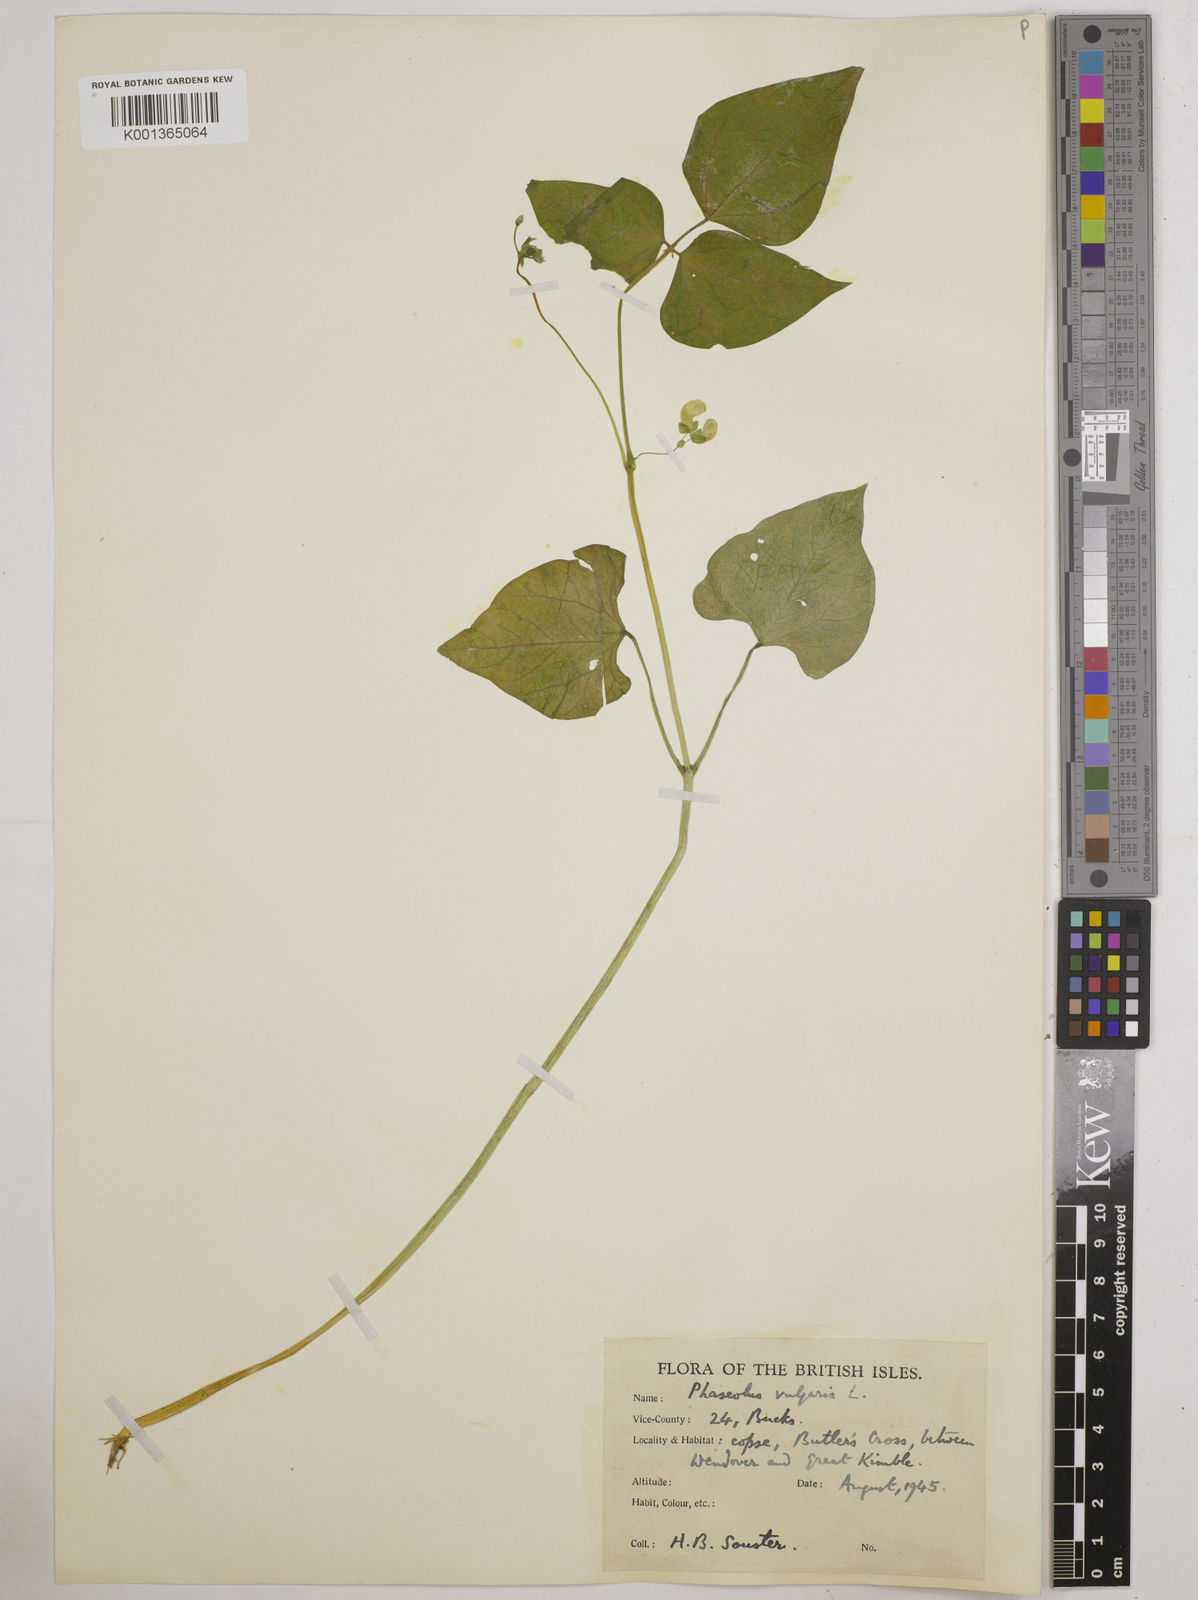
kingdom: Plantae
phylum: Tracheophyta
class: Magnoliopsida
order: Fabales
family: Fabaceae
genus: Phaseolus
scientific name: Phaseolus vulgaris
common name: Bean
